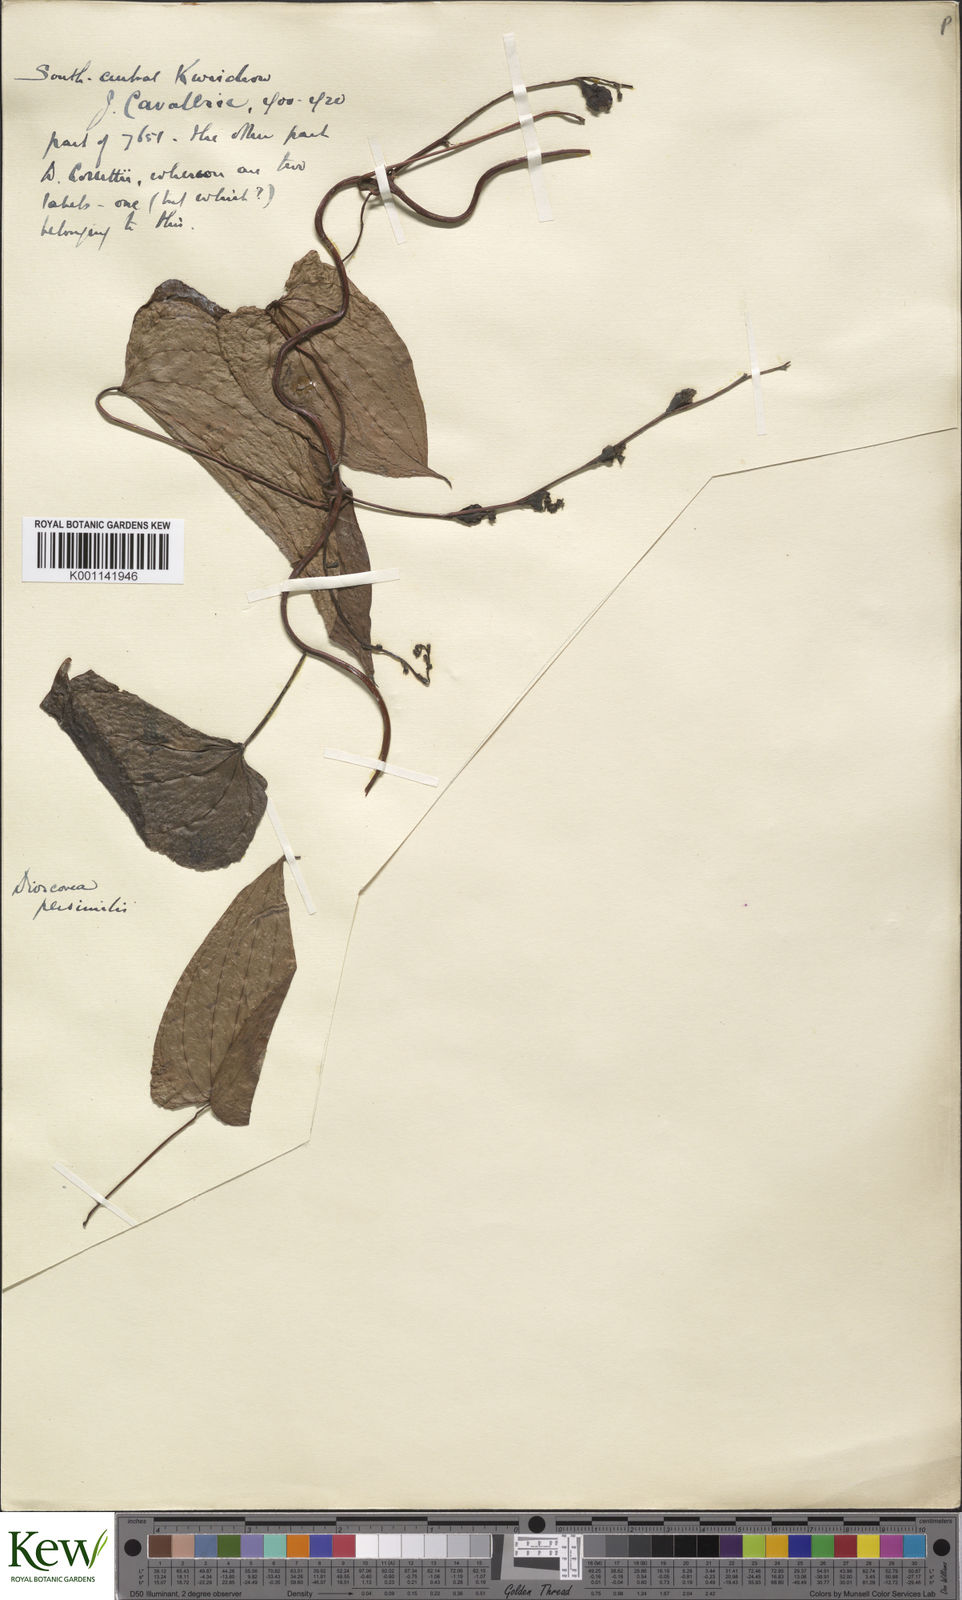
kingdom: Plantae
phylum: Tracheophyta
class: Liliopsida
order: Dioscoreales
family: Dioscoreaceae
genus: Dioscorea
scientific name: Dioscorea hamiltonii
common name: Mountain yam
